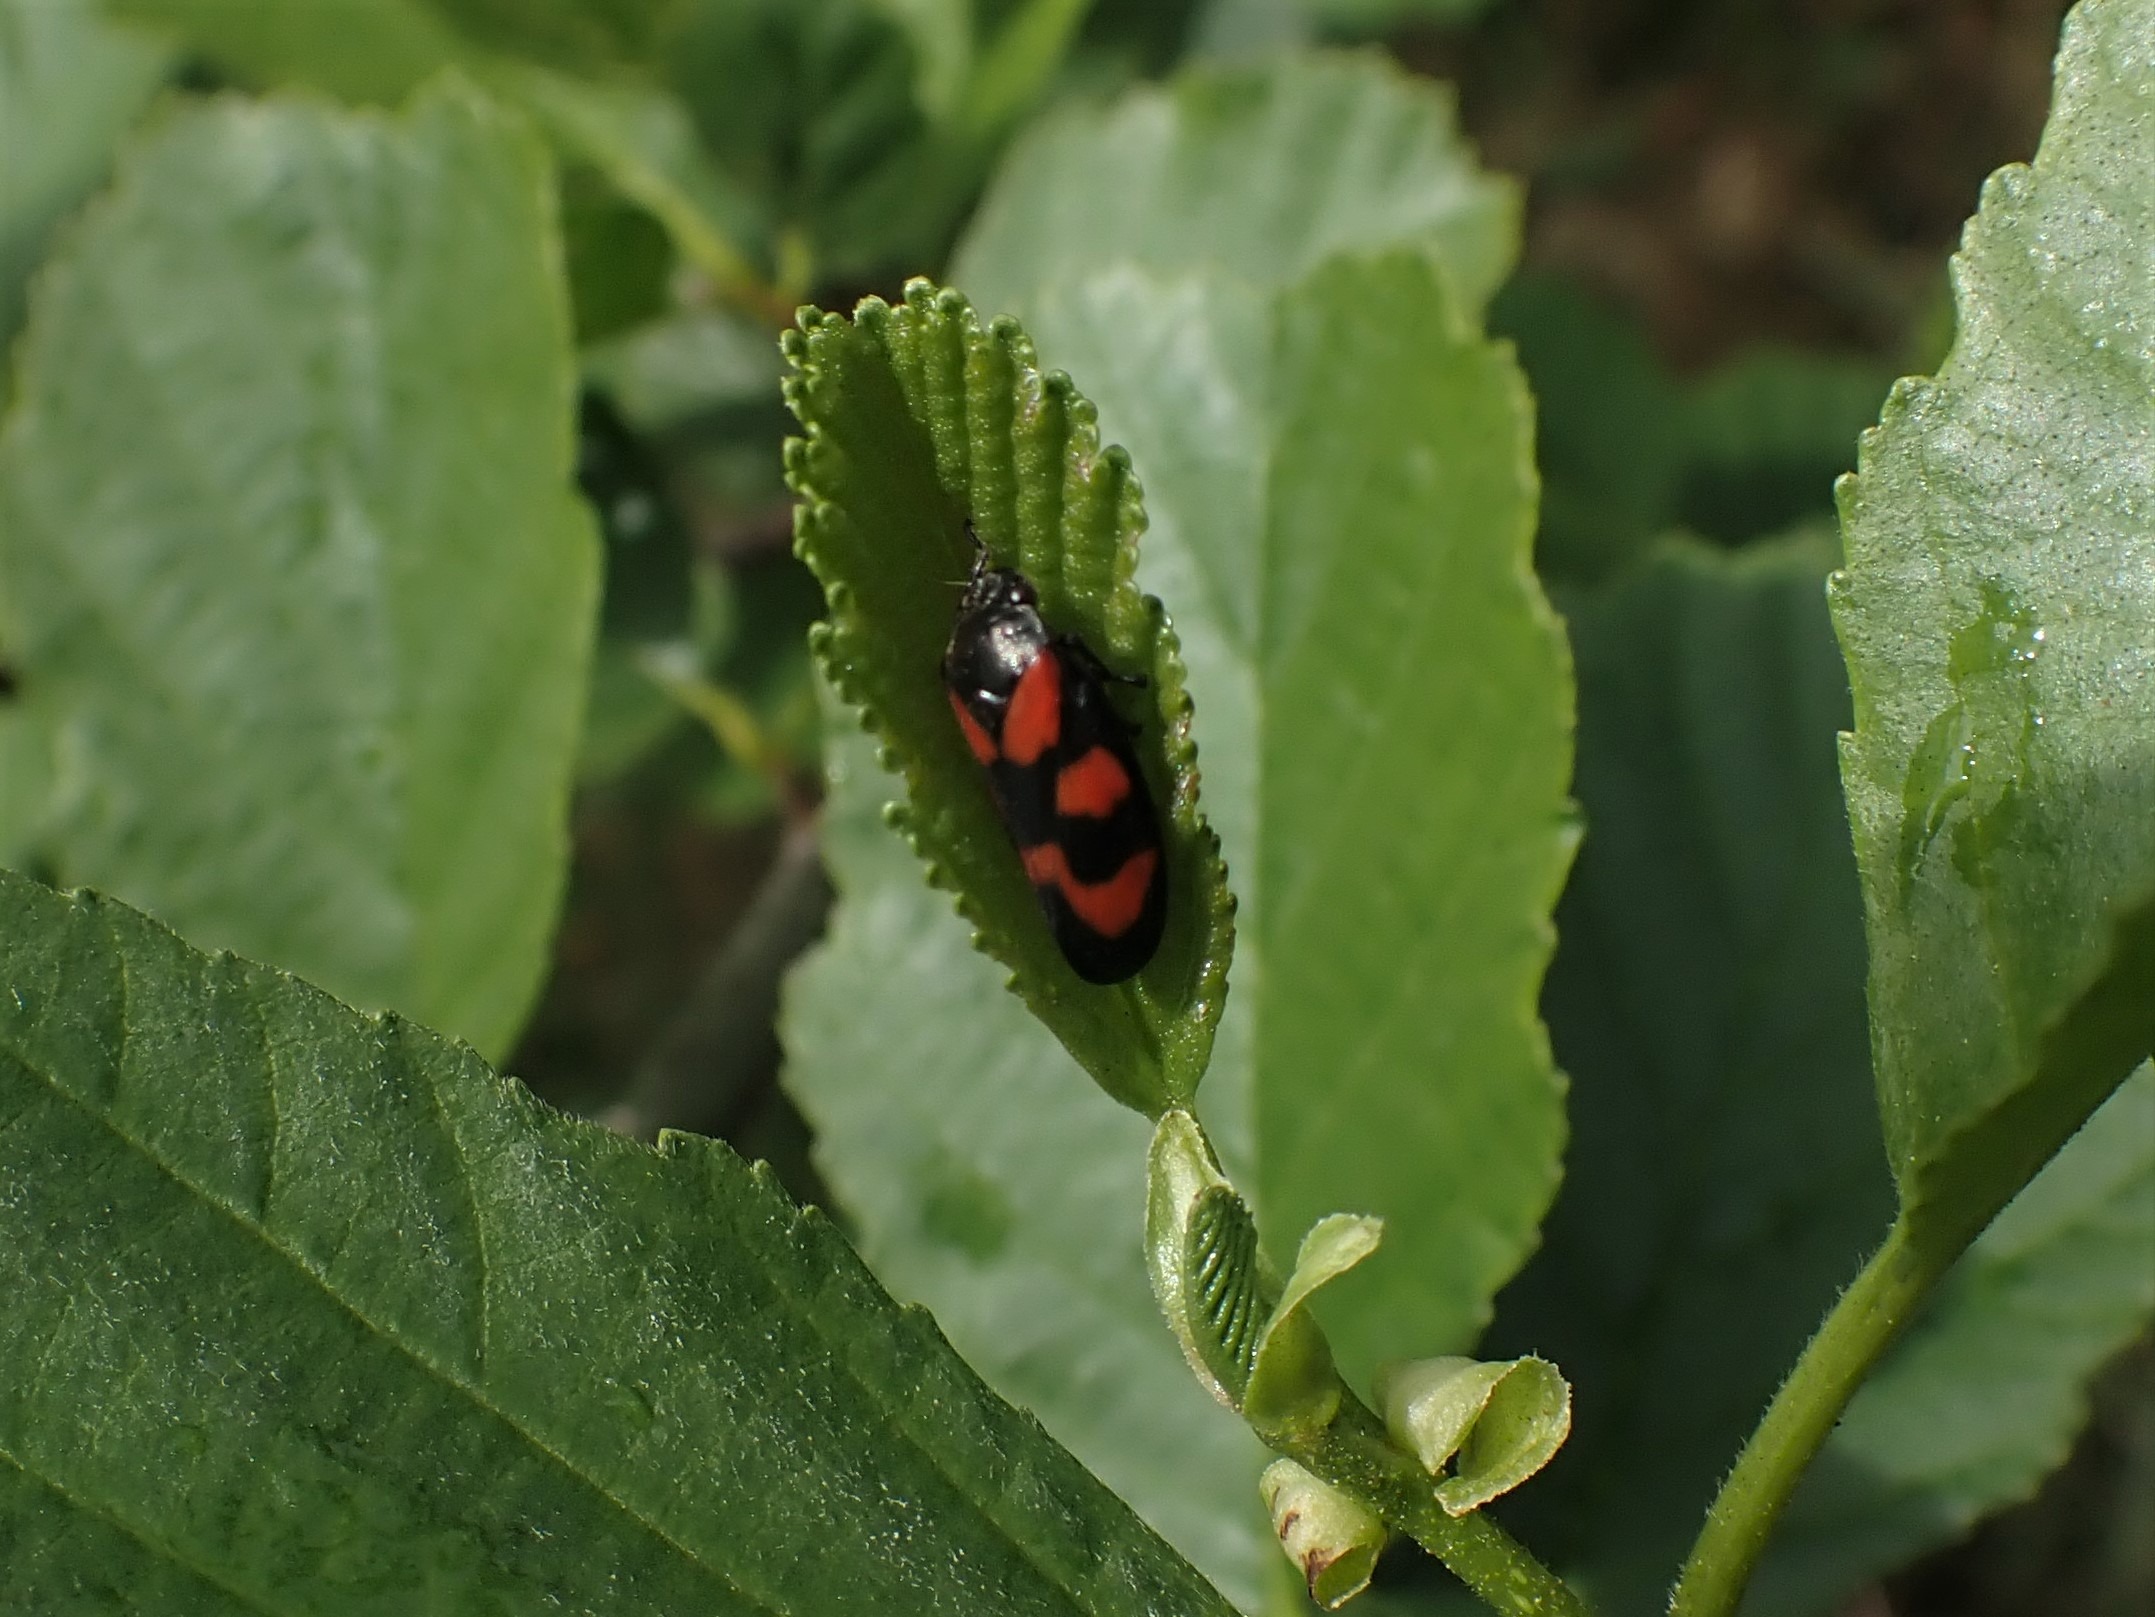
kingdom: Animalia
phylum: Arthropoda
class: Insecta
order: Hemiptera
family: Cercopidae
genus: Cercopis
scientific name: Cercopis vulnerata
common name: Blodcikade
